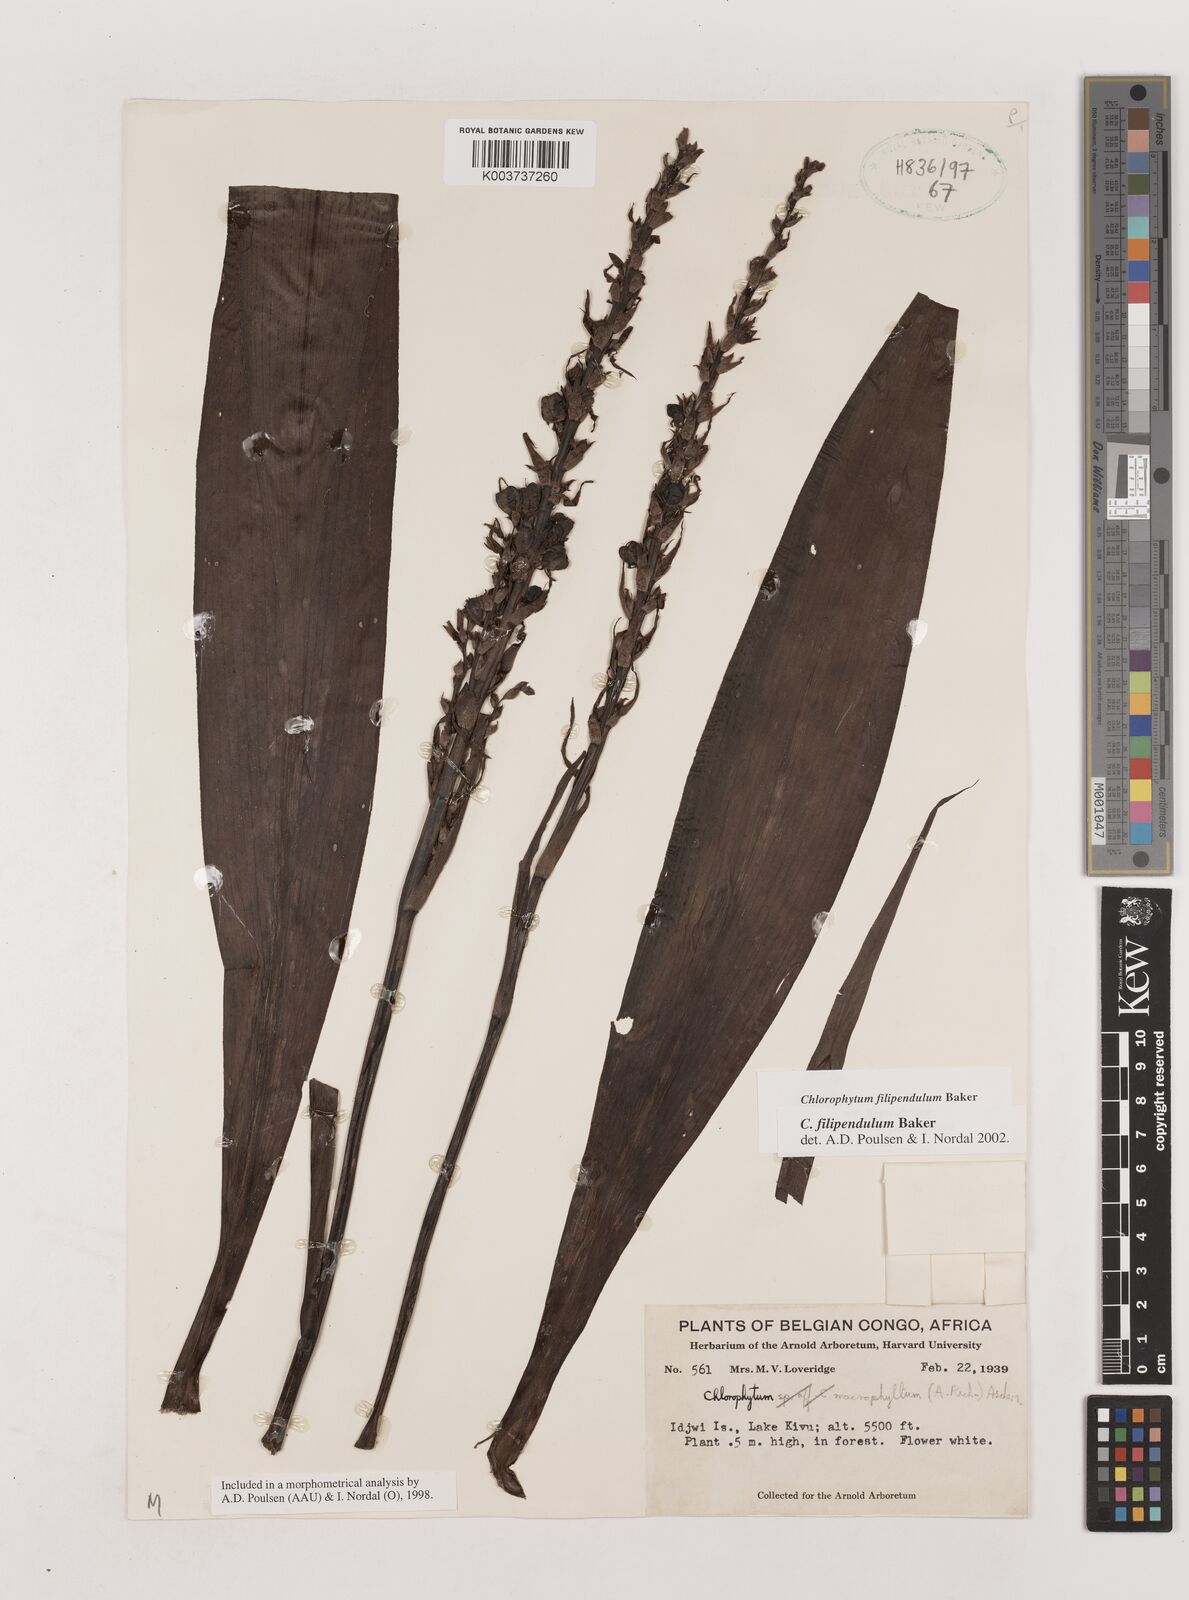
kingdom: Plantae
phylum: Tracheophyta
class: Liliopsida
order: Asparagales
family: Asparagaceae
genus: Chlorophytum
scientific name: Chlorophytum filipendulum
